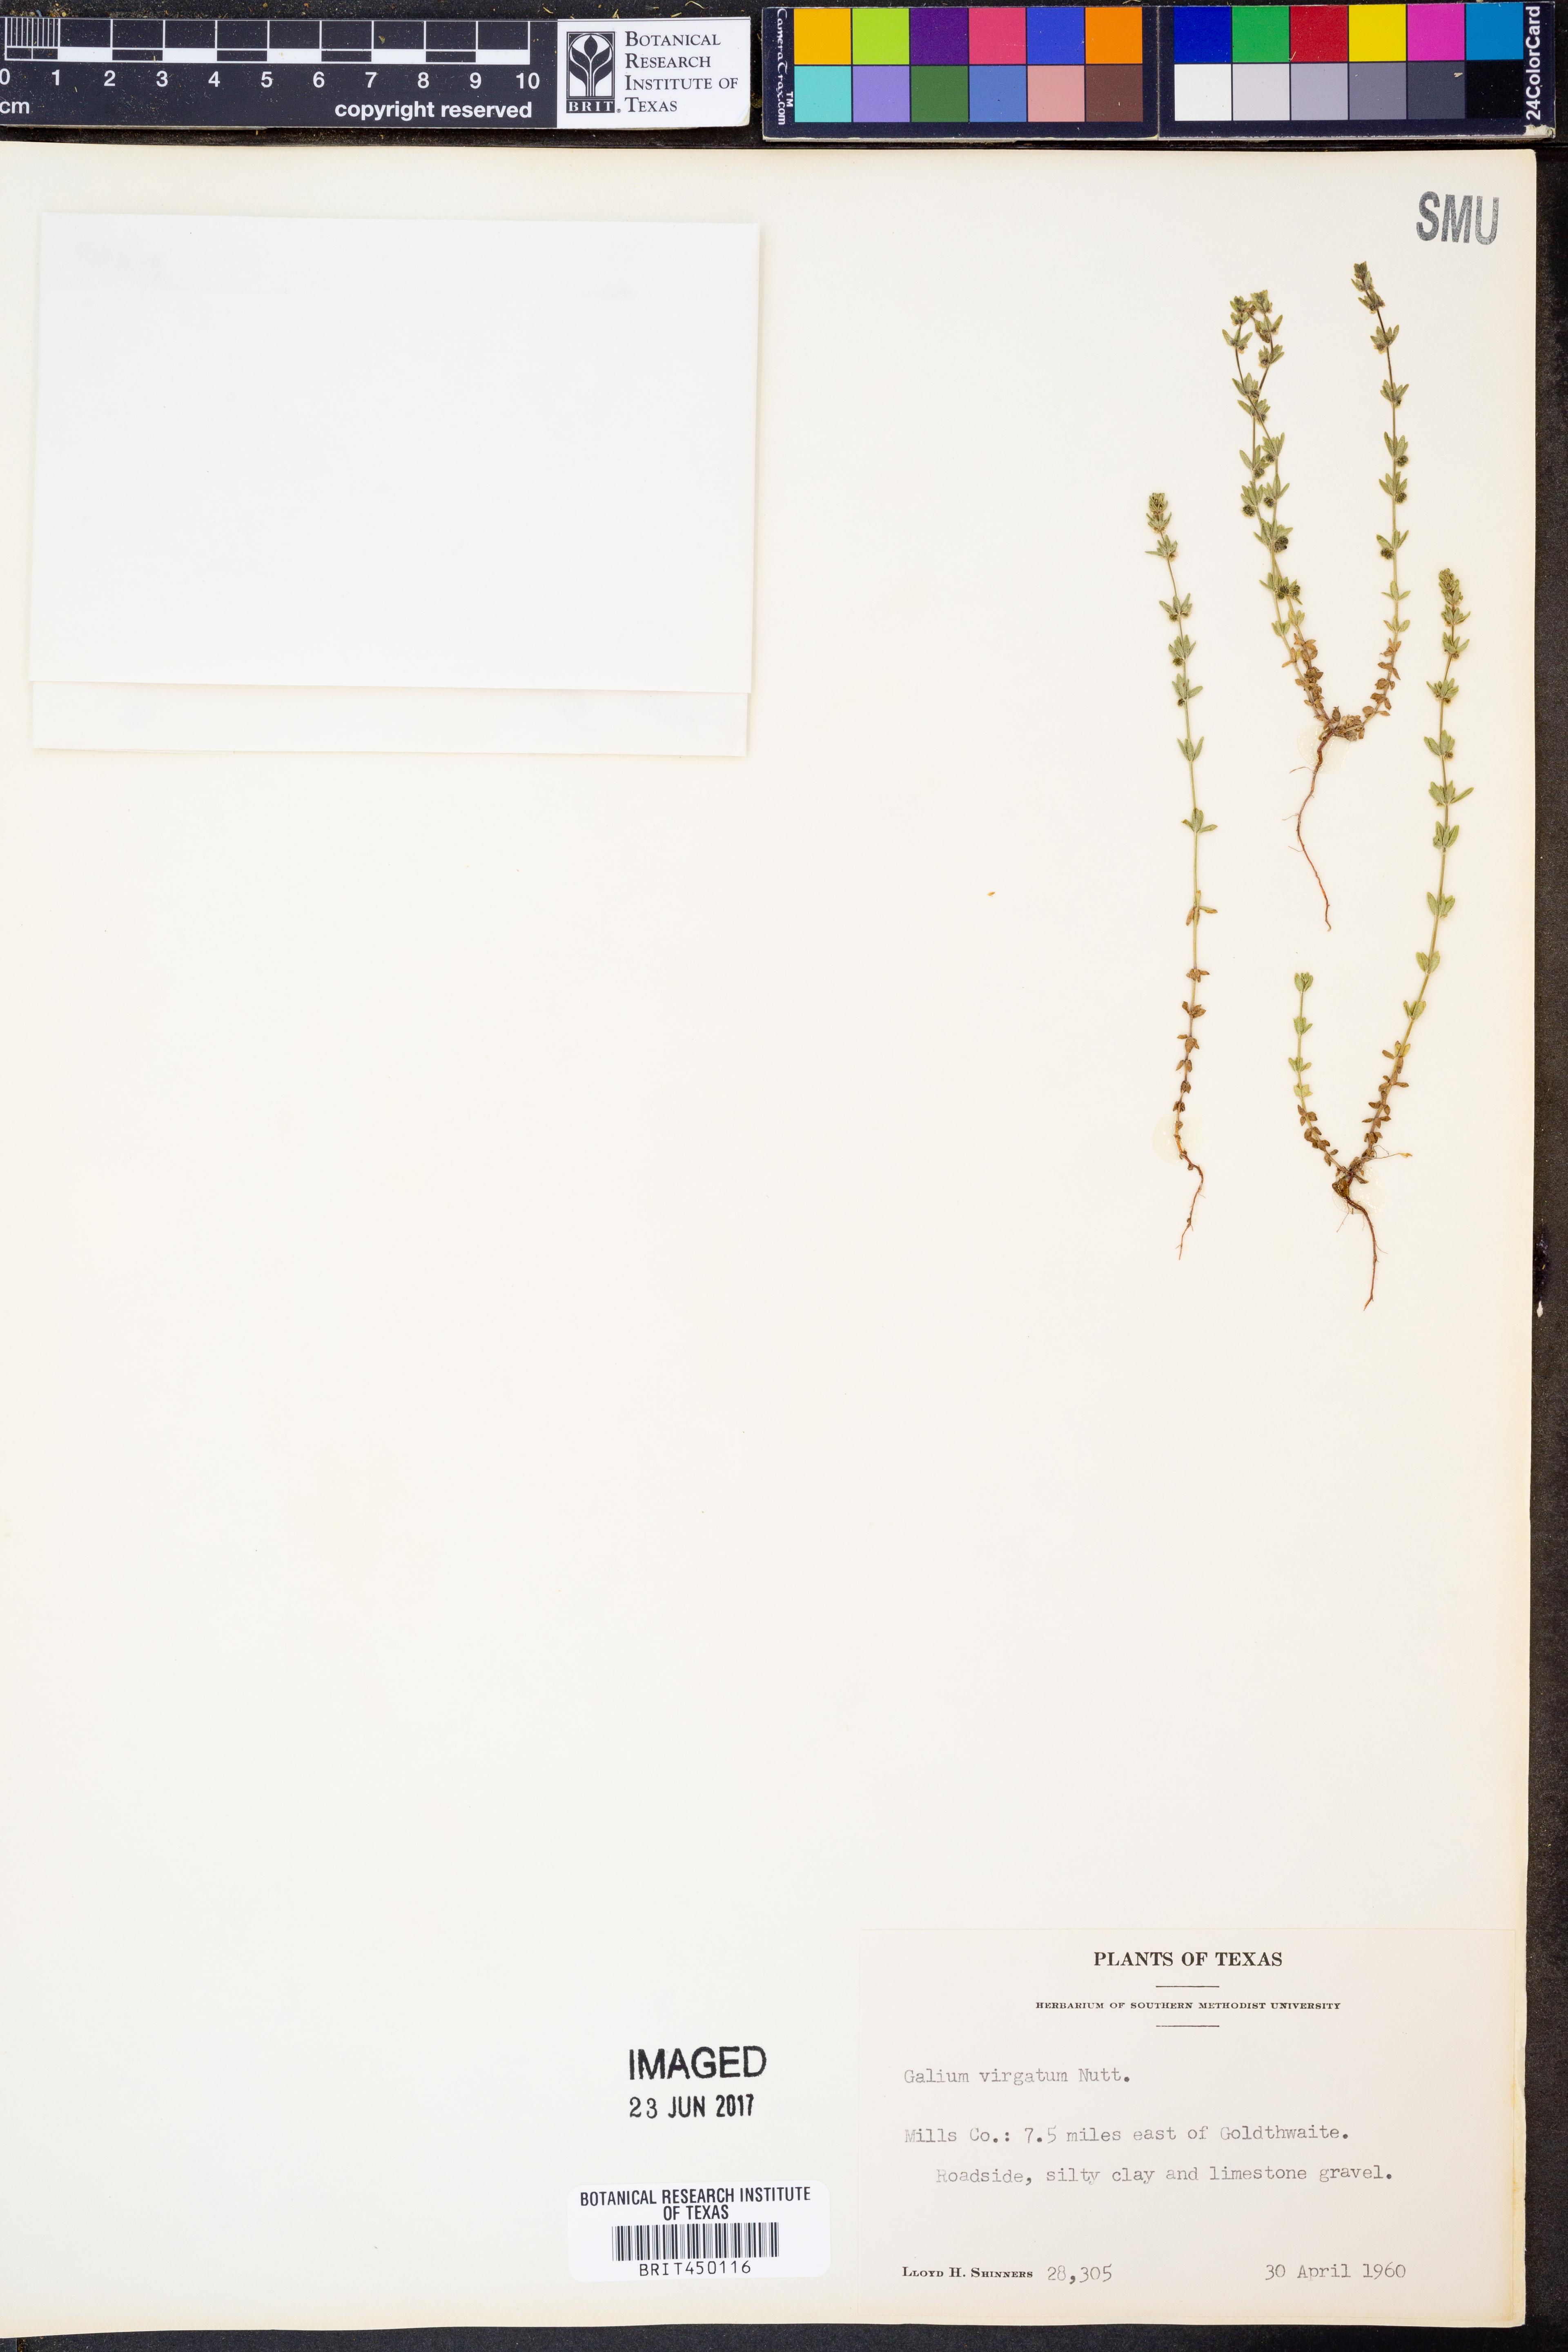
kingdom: Plantae
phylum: Tracheophyta
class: Magnoliopsida
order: Gentianales
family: Rubiaceae
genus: Galium
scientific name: Galium virgatum
